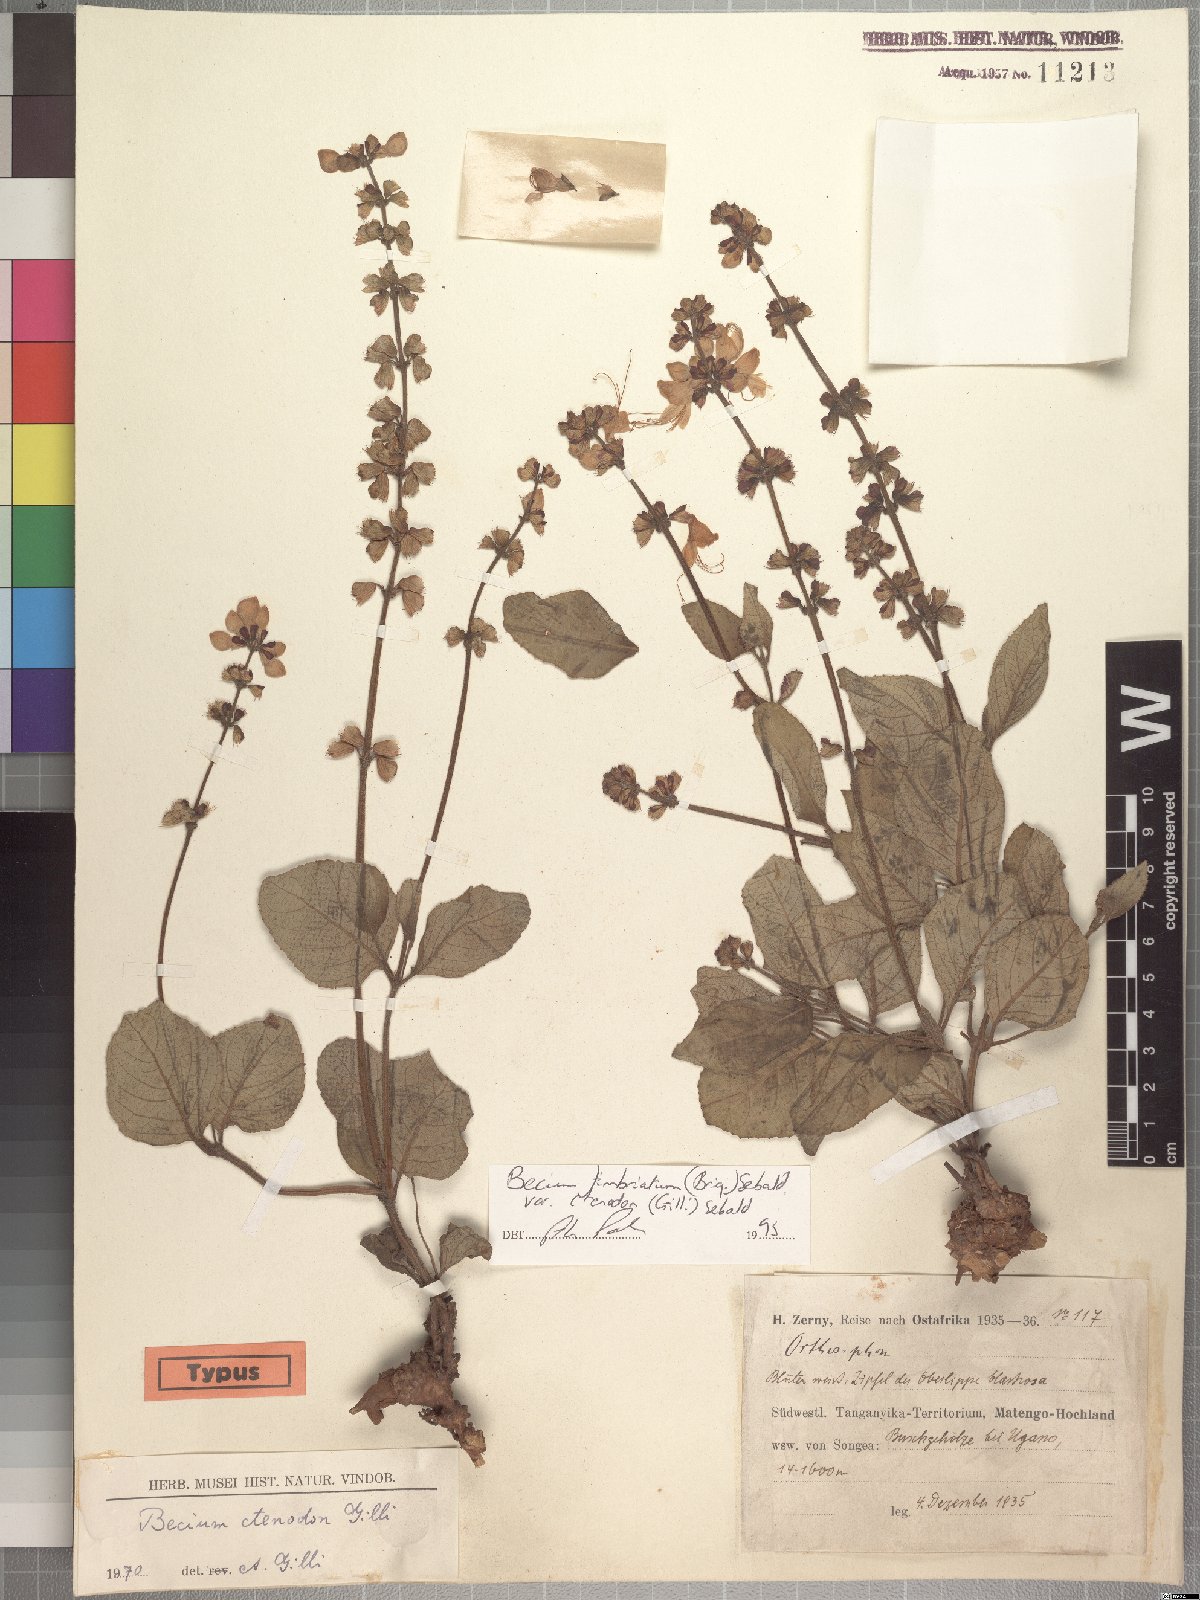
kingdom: Plantae
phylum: Tracheophyta
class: Magnoliopsida
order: Lamiales
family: Lamiaceae
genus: Ocimum
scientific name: Ocimum fimbriatum
